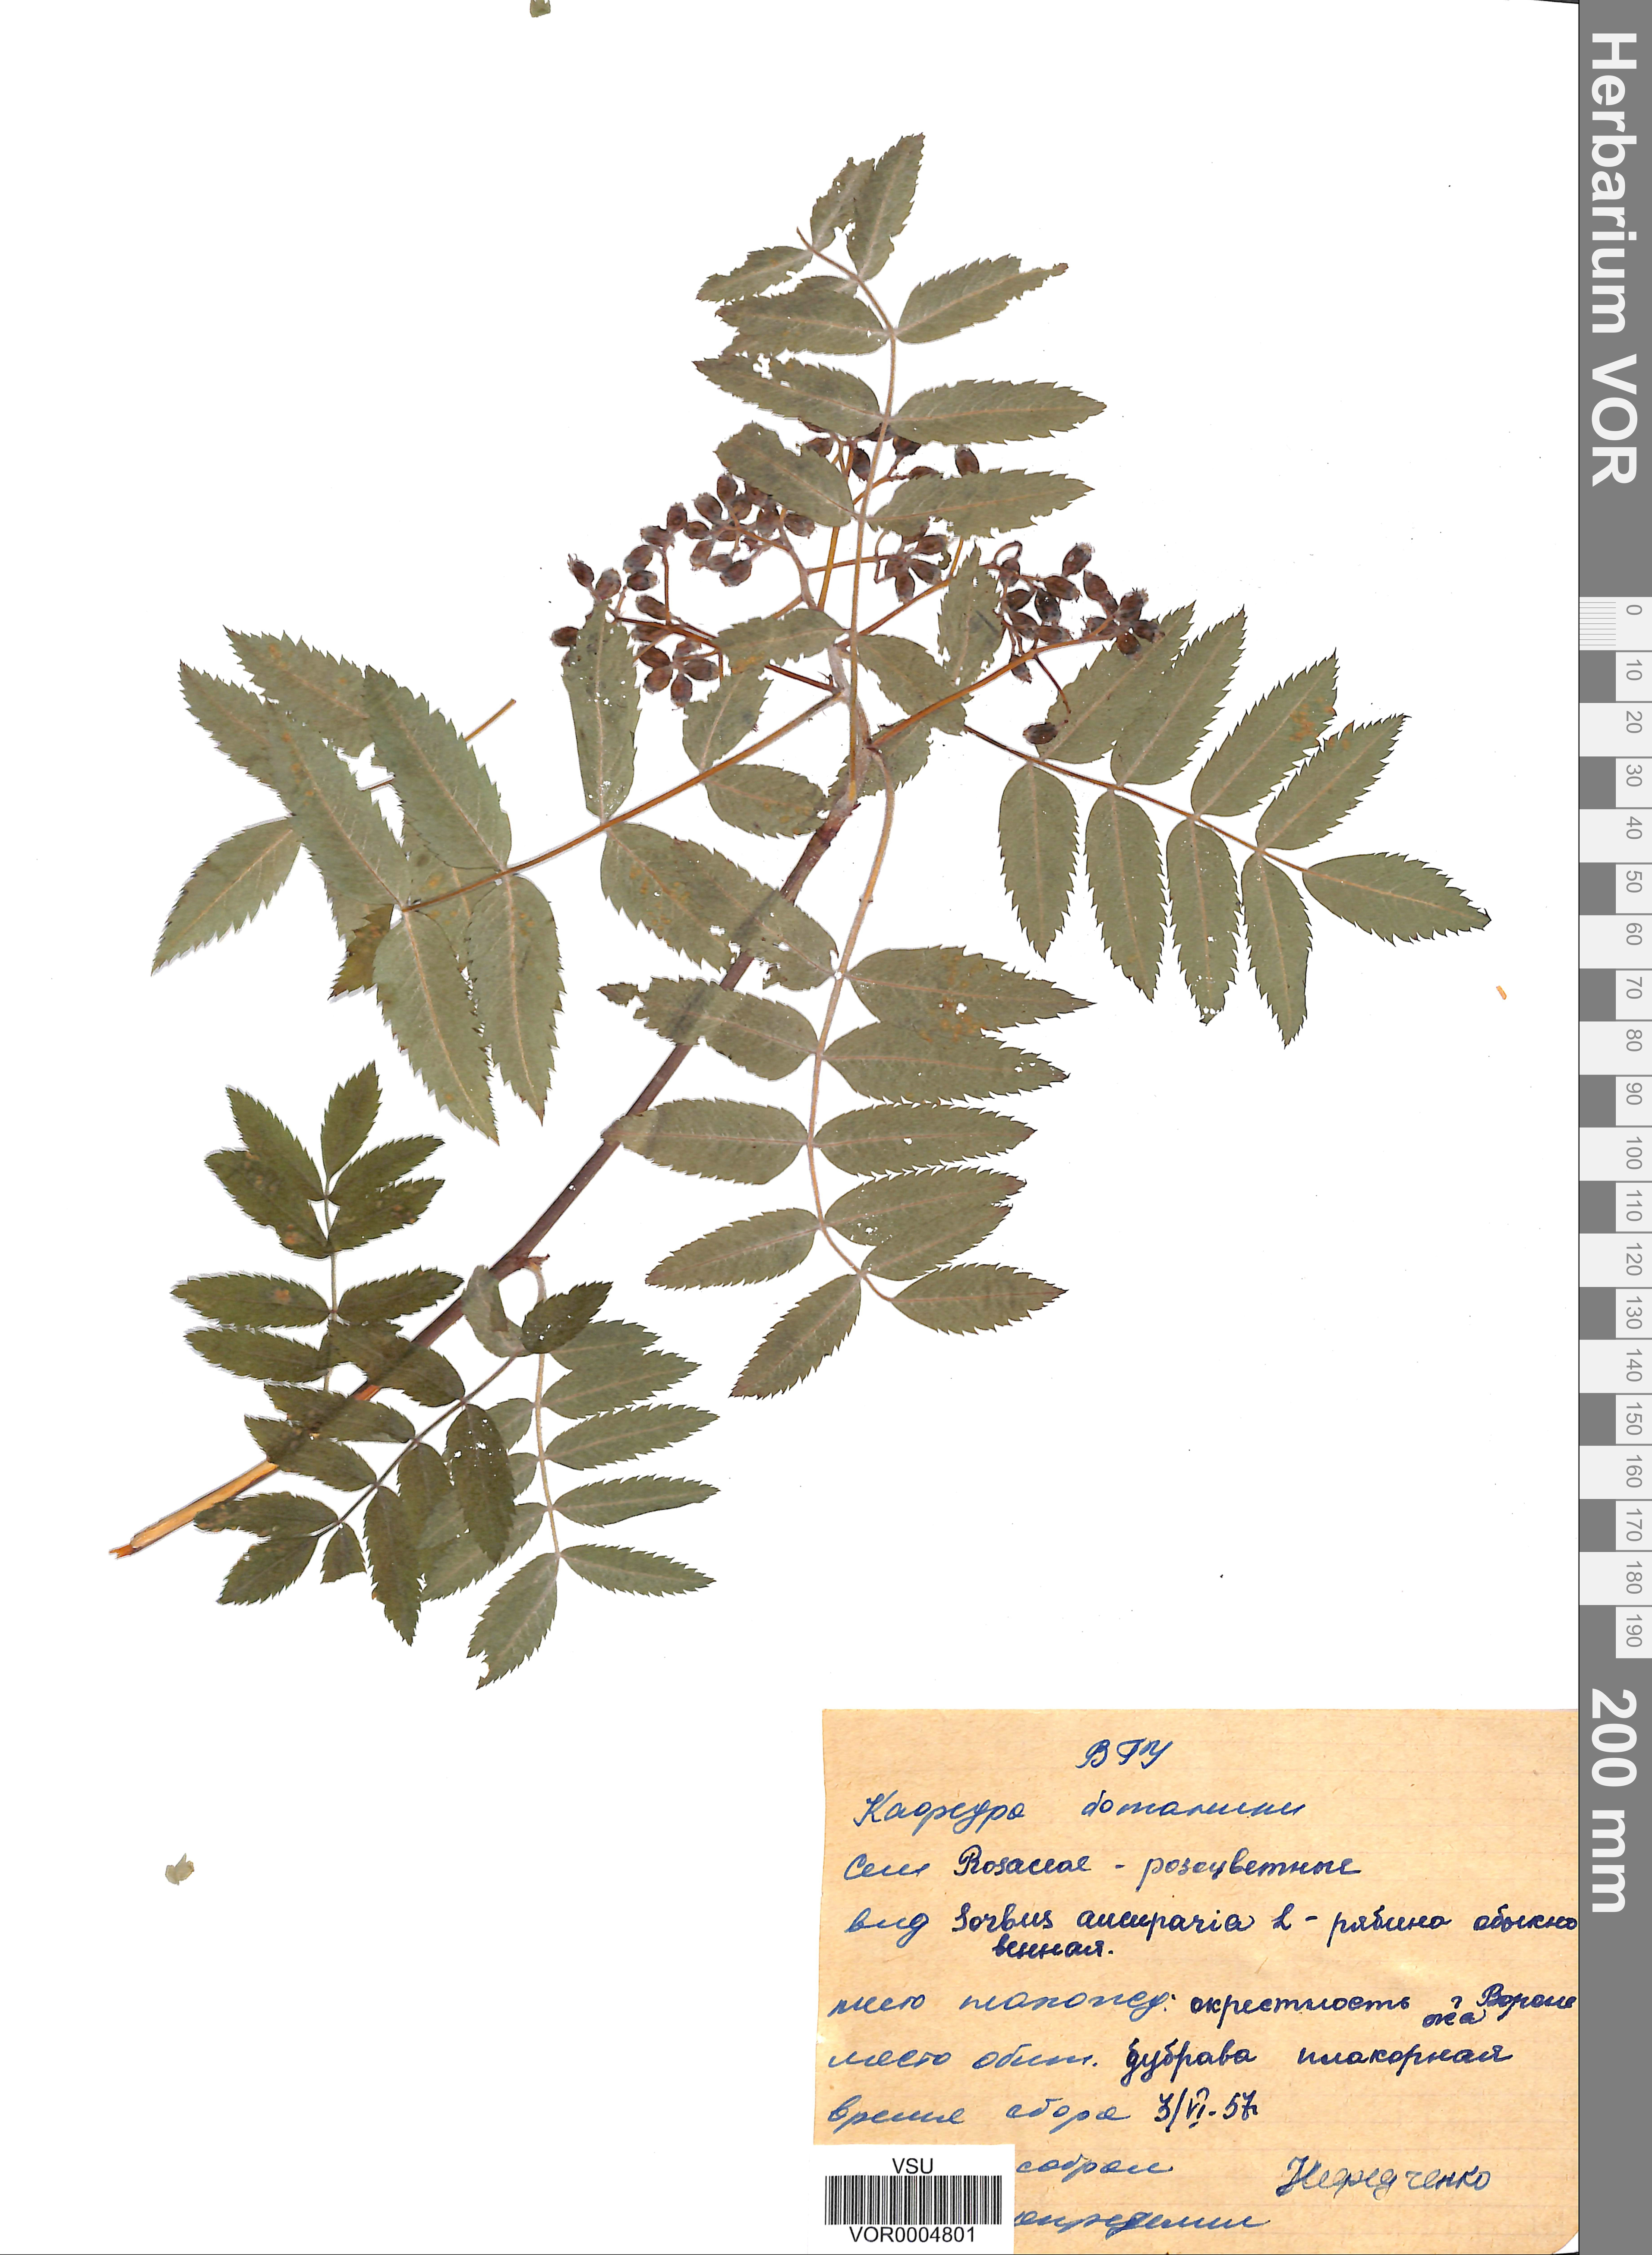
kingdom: Plantae
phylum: Tracheophyta
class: Magnoliopsida
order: Rosales
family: Rosaceae
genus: Sorbus
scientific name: Sorbus aucuparia
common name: Rowan
